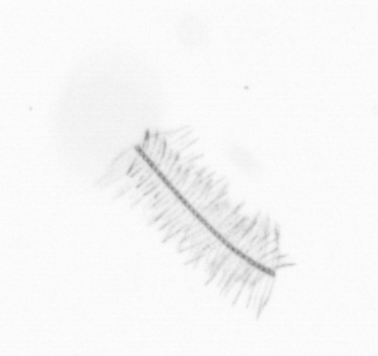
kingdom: Chromista
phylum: Ochrophyta
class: Bacillariophyceae
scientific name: Bacillariophyceae
